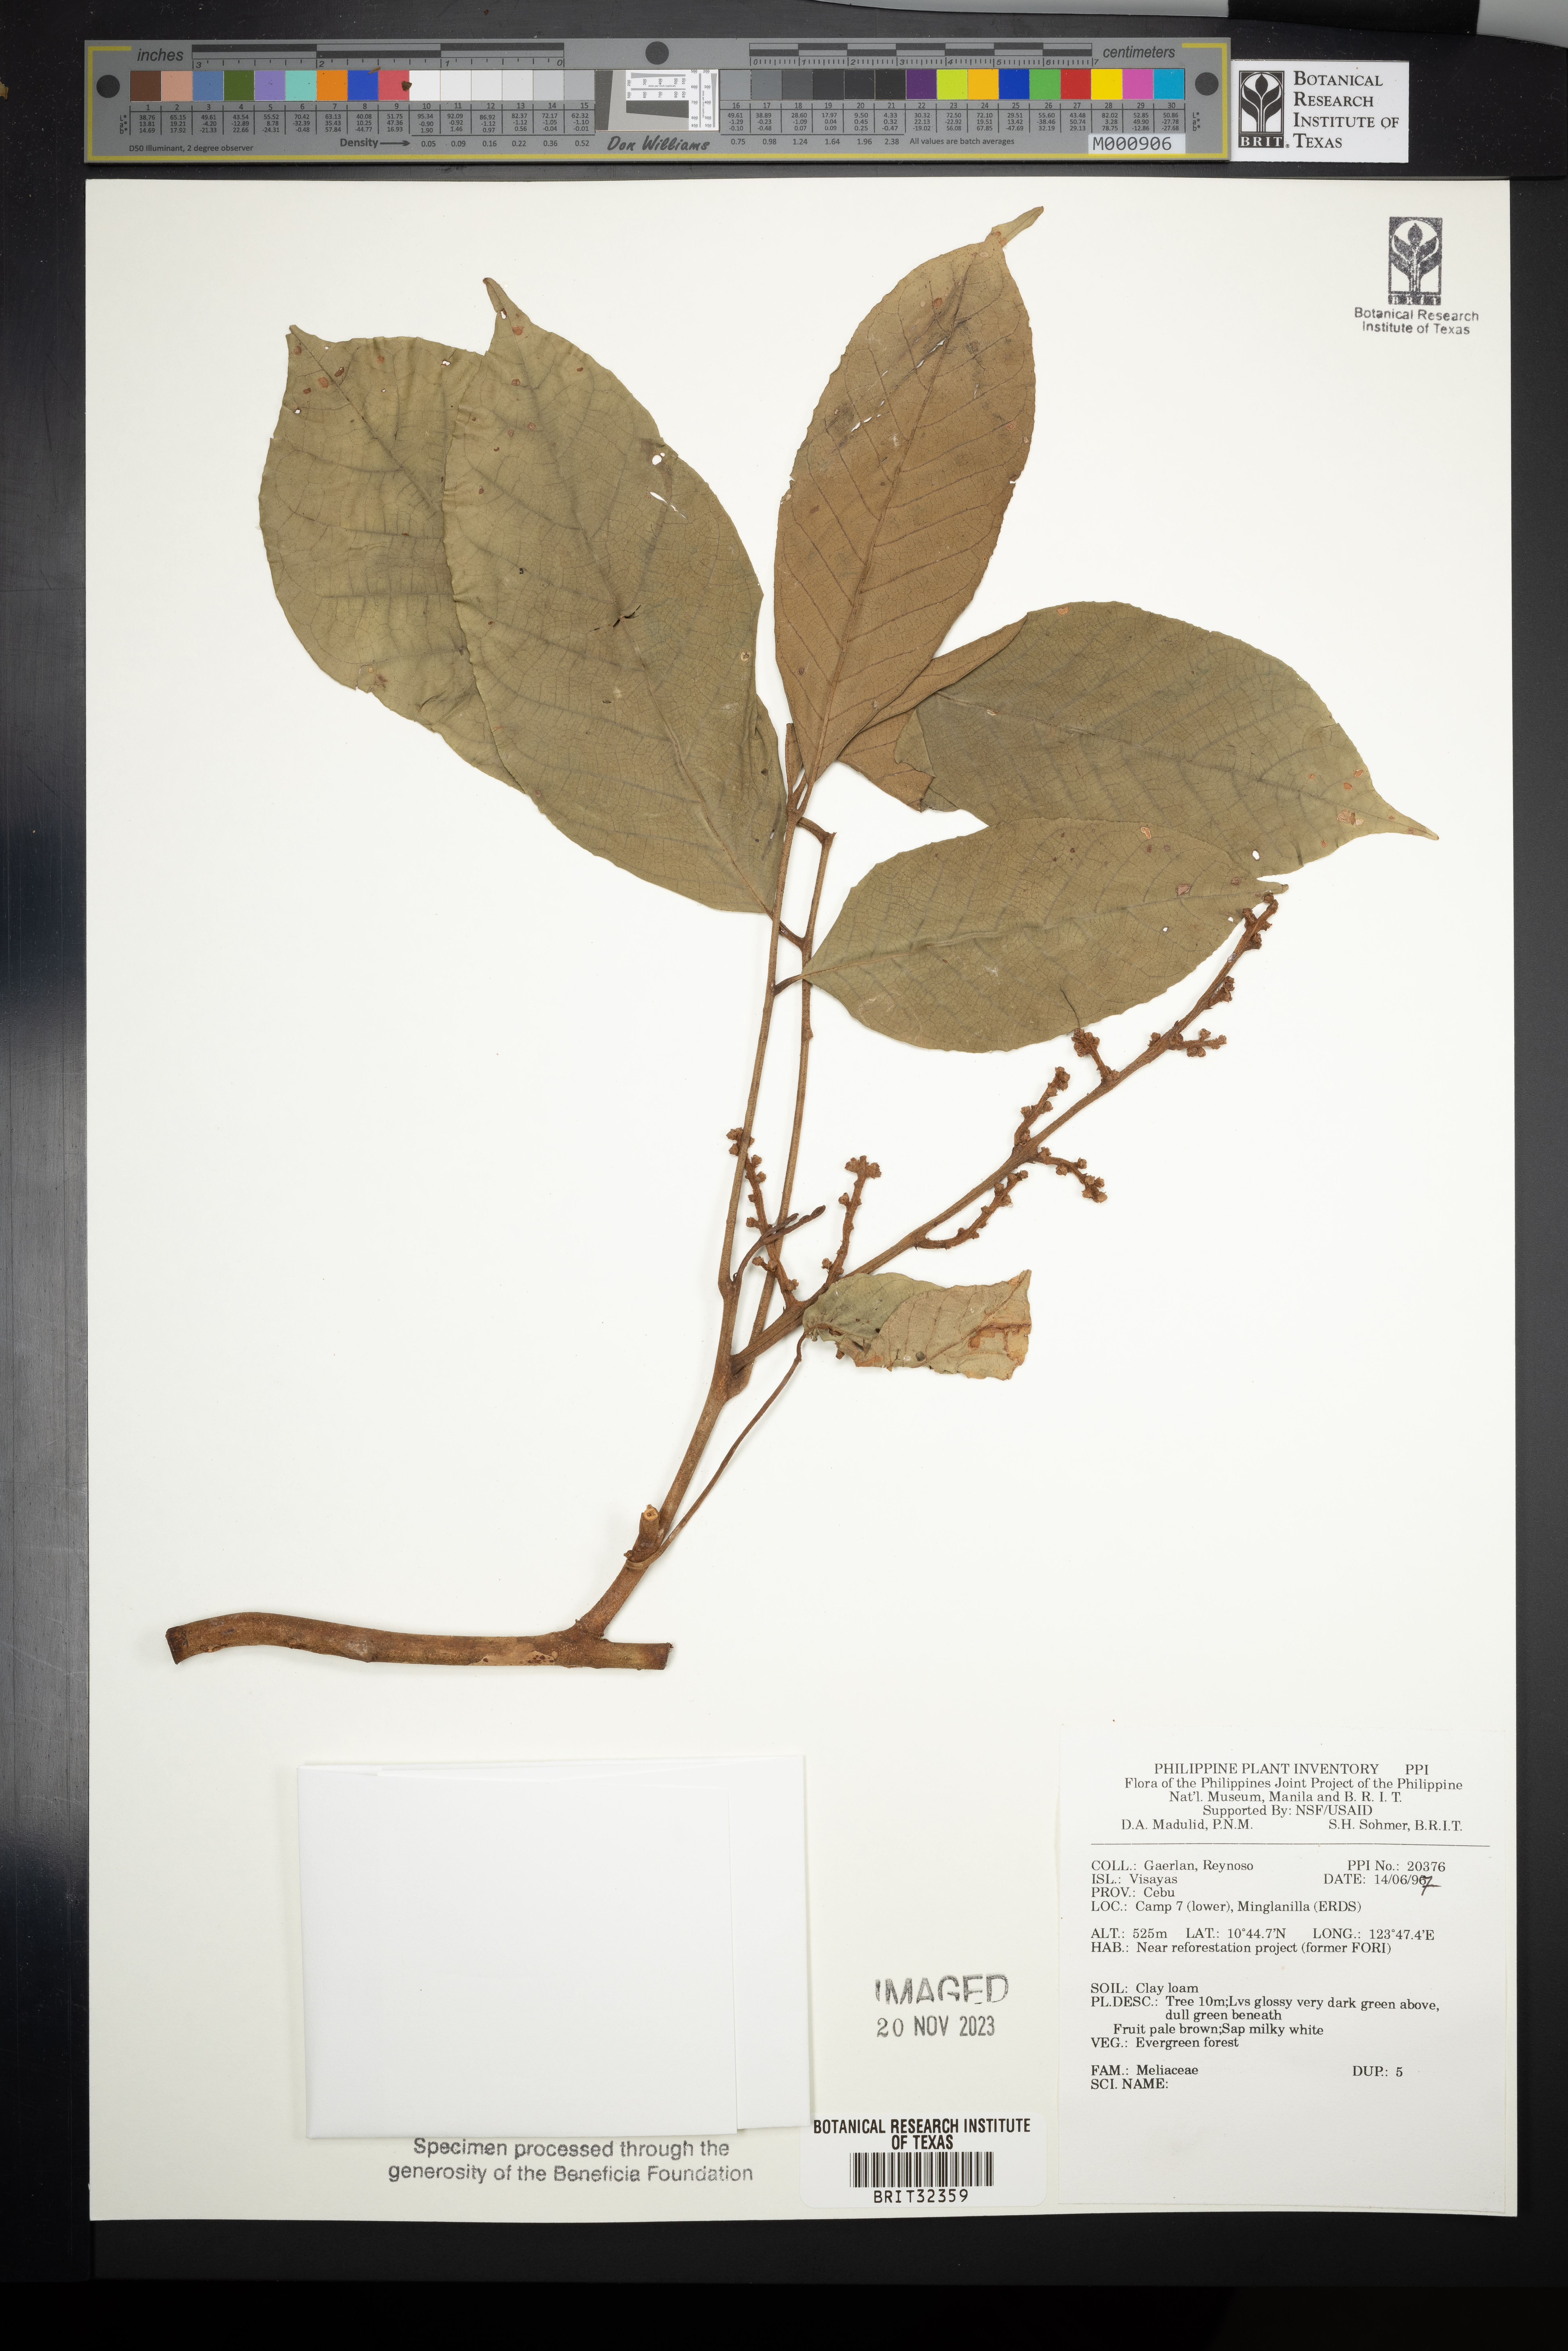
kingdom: Plantae
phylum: Tracheophyta
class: Magnoliopsida
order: Sapindales
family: Meliaceae
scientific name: Meliaceae
